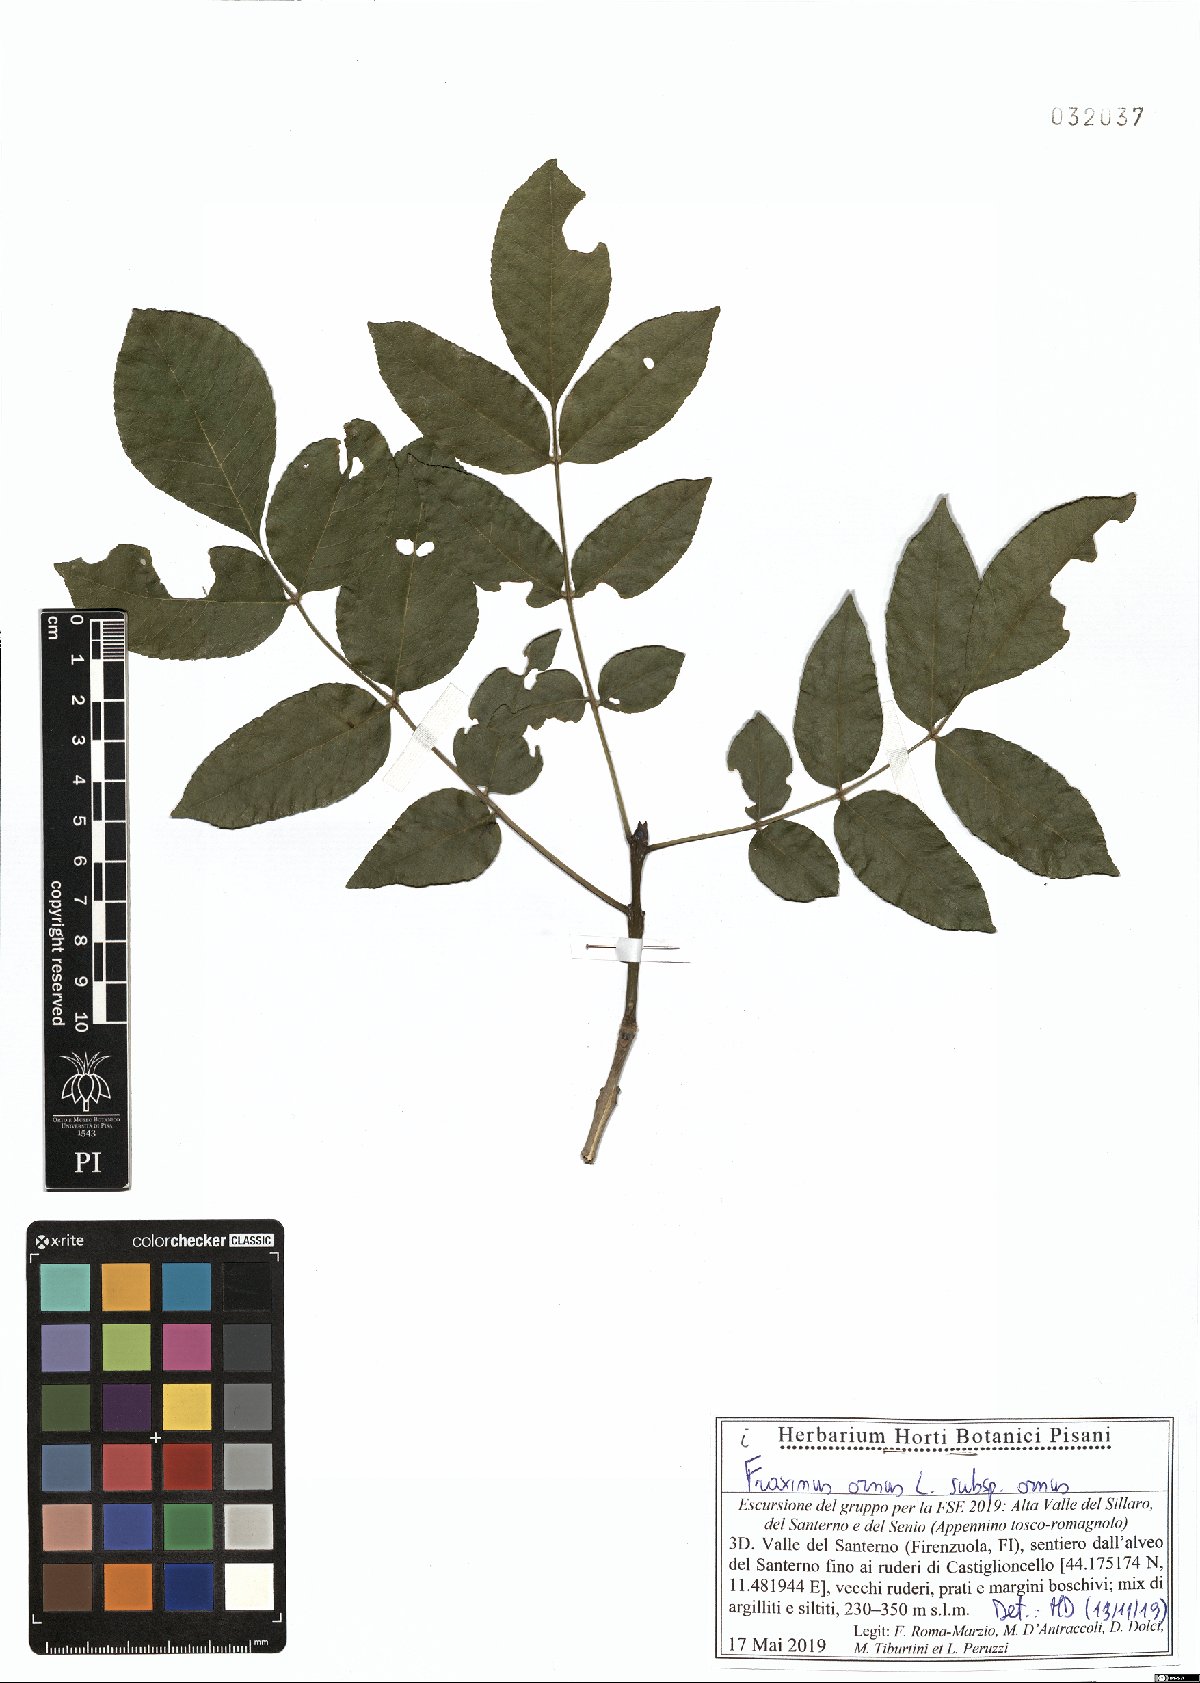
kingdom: Plantae
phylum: Tracheophyta
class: Magnoliopsida
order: Lamiales
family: Oleaceae
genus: Fraxinus
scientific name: Fraxinus ornus
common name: Manna ash
